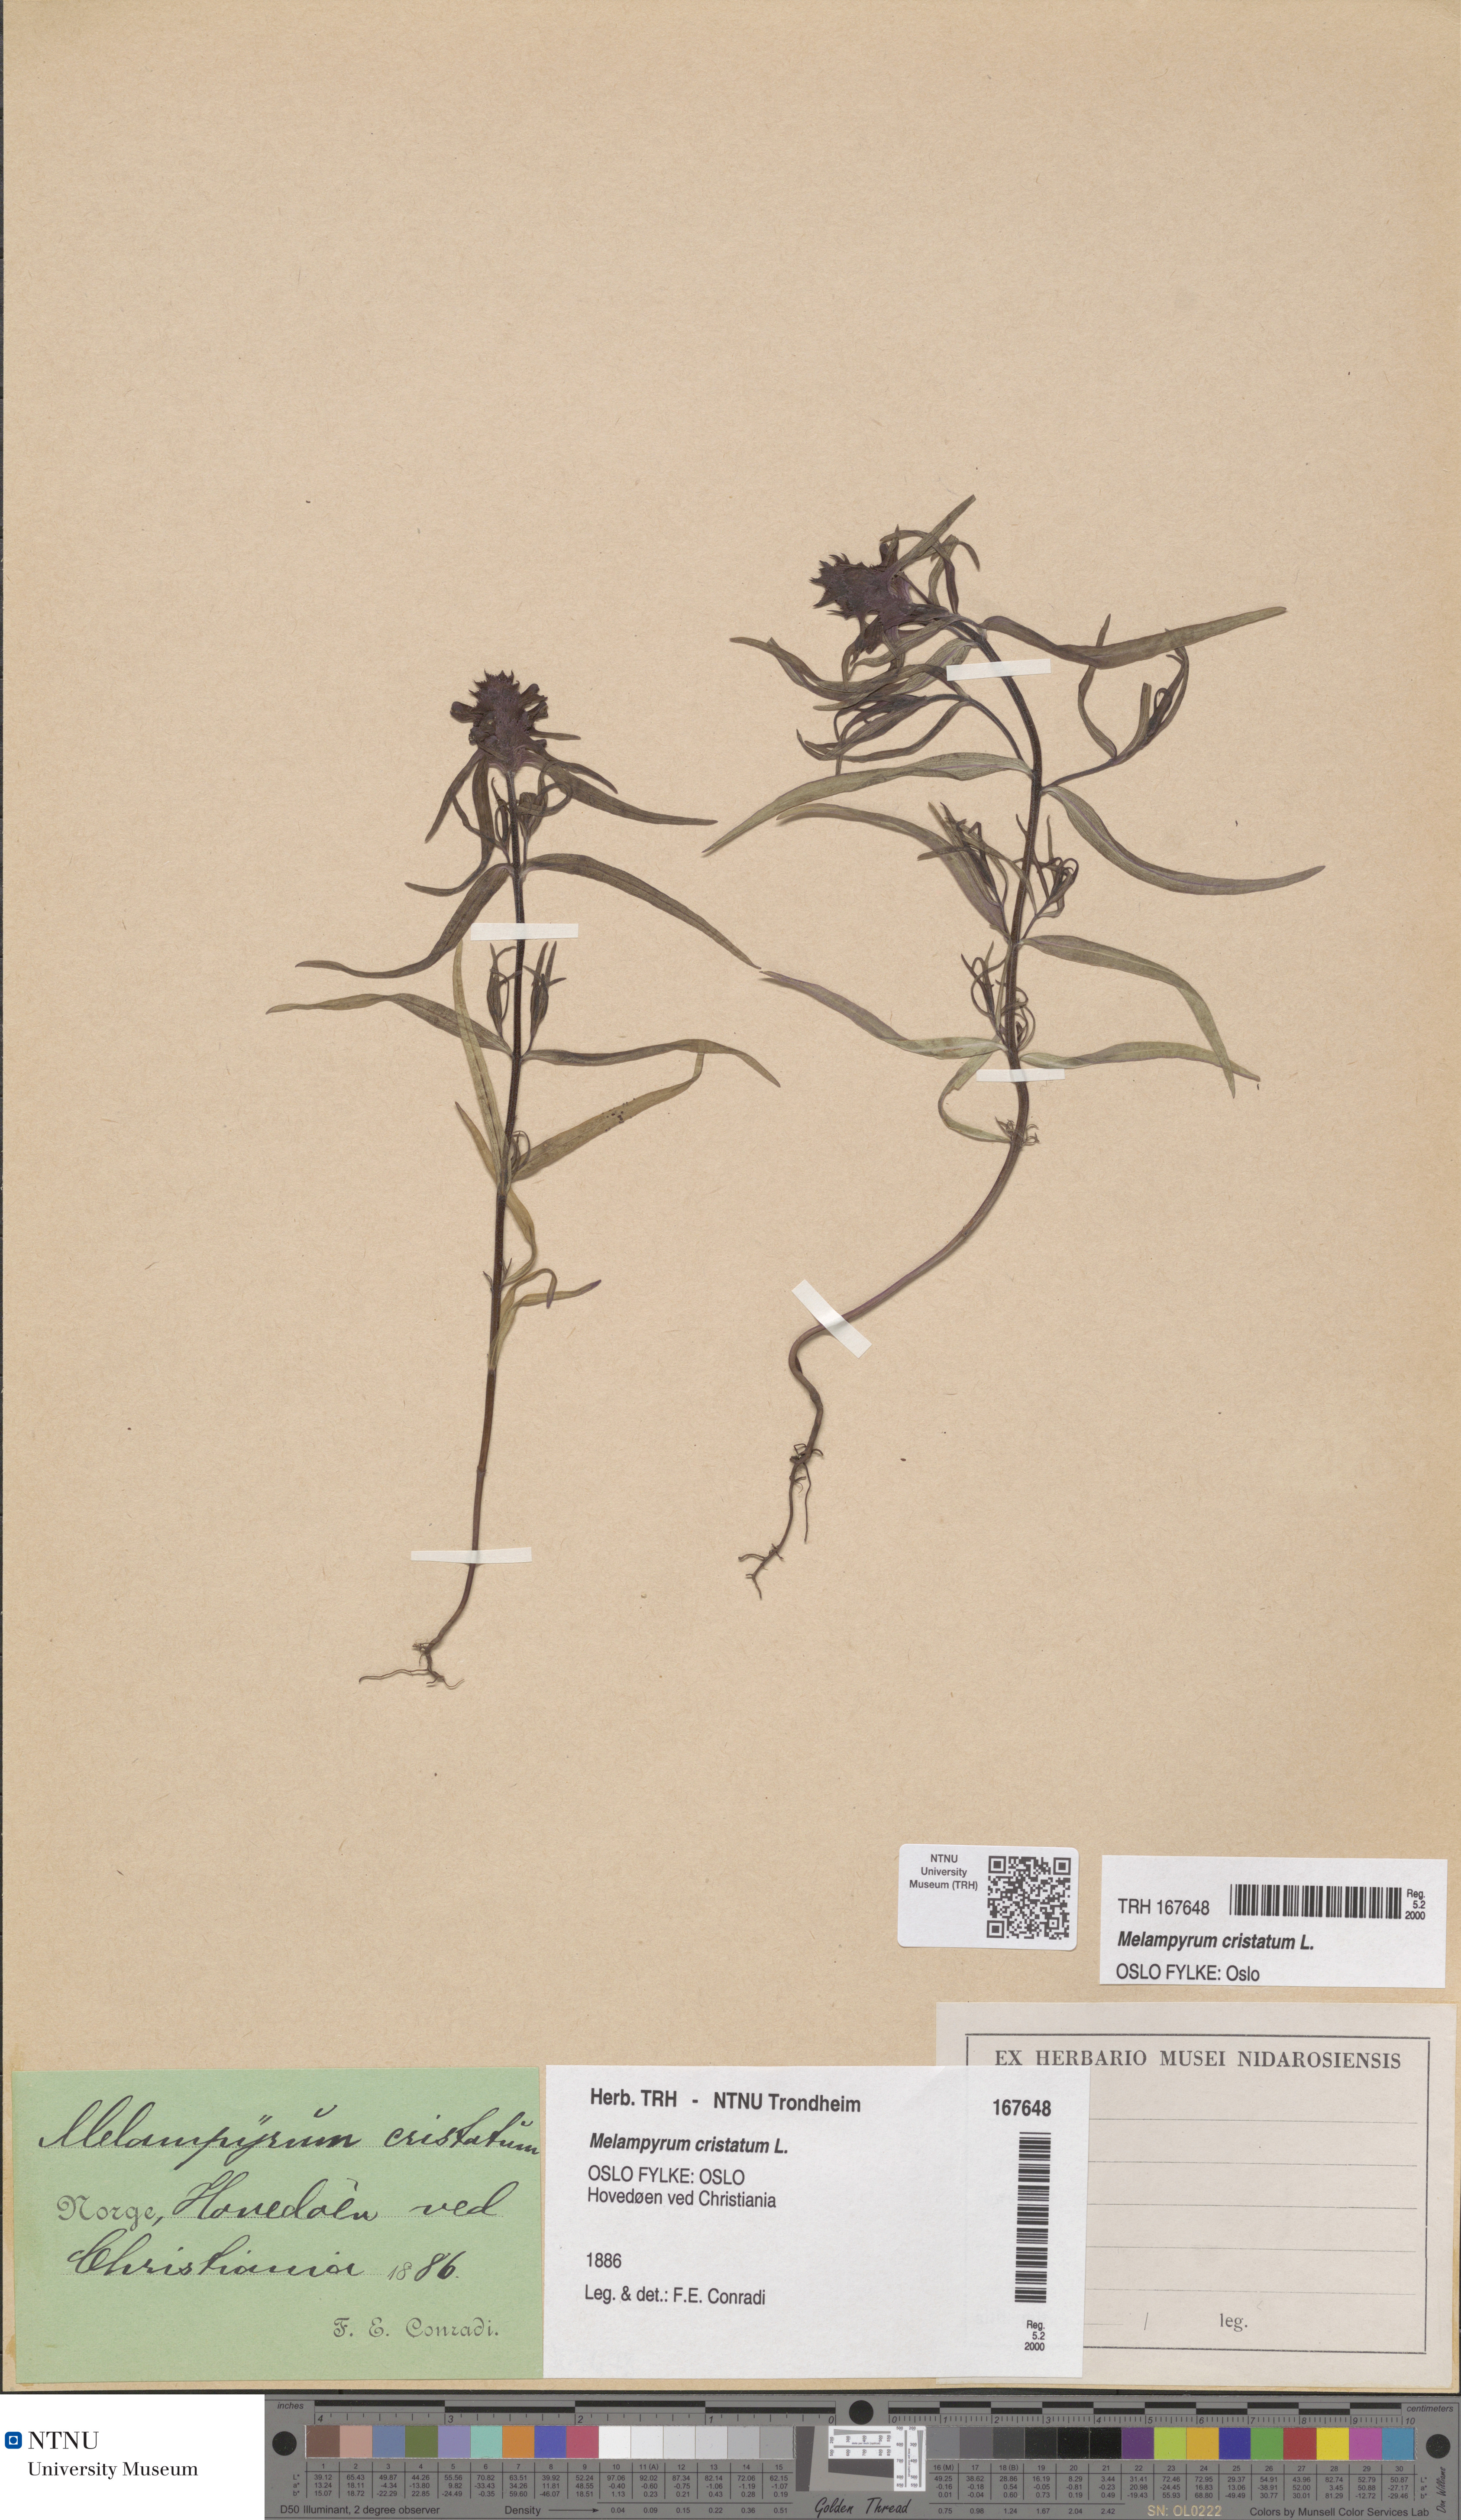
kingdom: Plantae
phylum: Tracheophyta
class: Magnoliopsida
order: Lamiales
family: Orobanchaceae
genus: Melampyrum
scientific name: Melampyrum cristatum
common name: Crested cow-wheat
